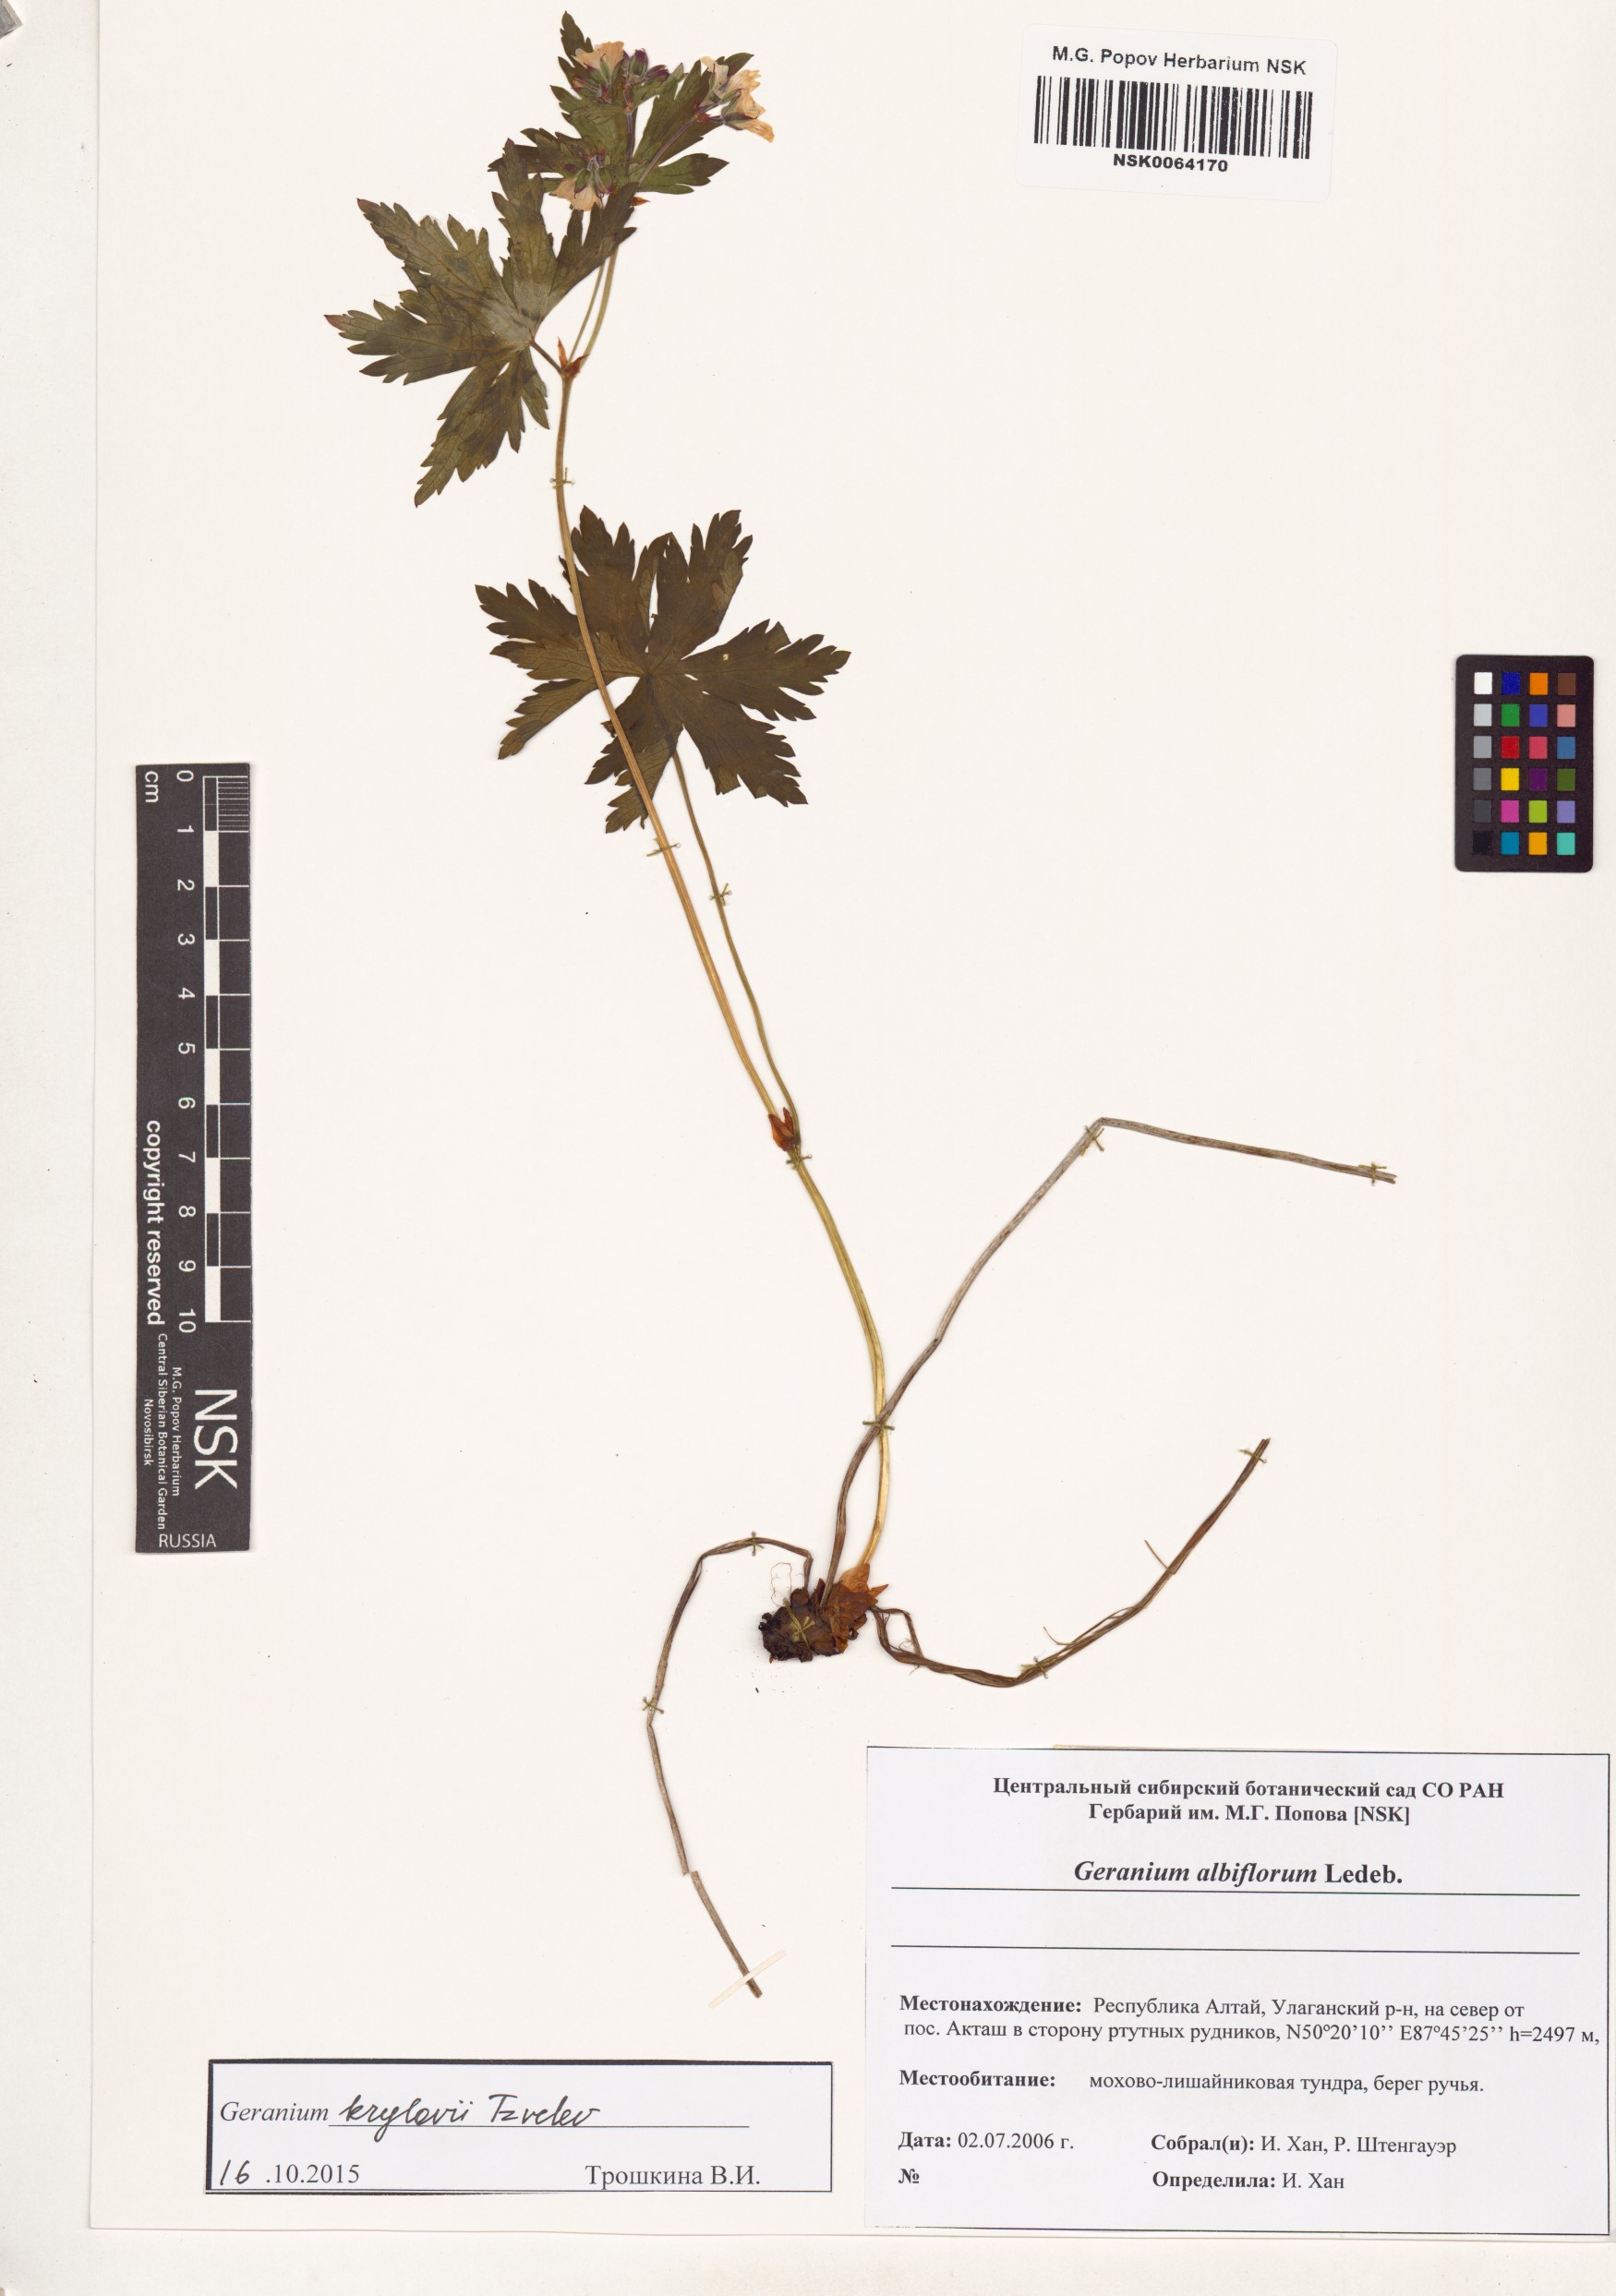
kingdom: Plantae
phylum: Tracheophyta
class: Magnoliopsida
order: Geraniales
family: Geraniaceae
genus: Geranium
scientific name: Geranium sylvaticum
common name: Wood crane's-bill
